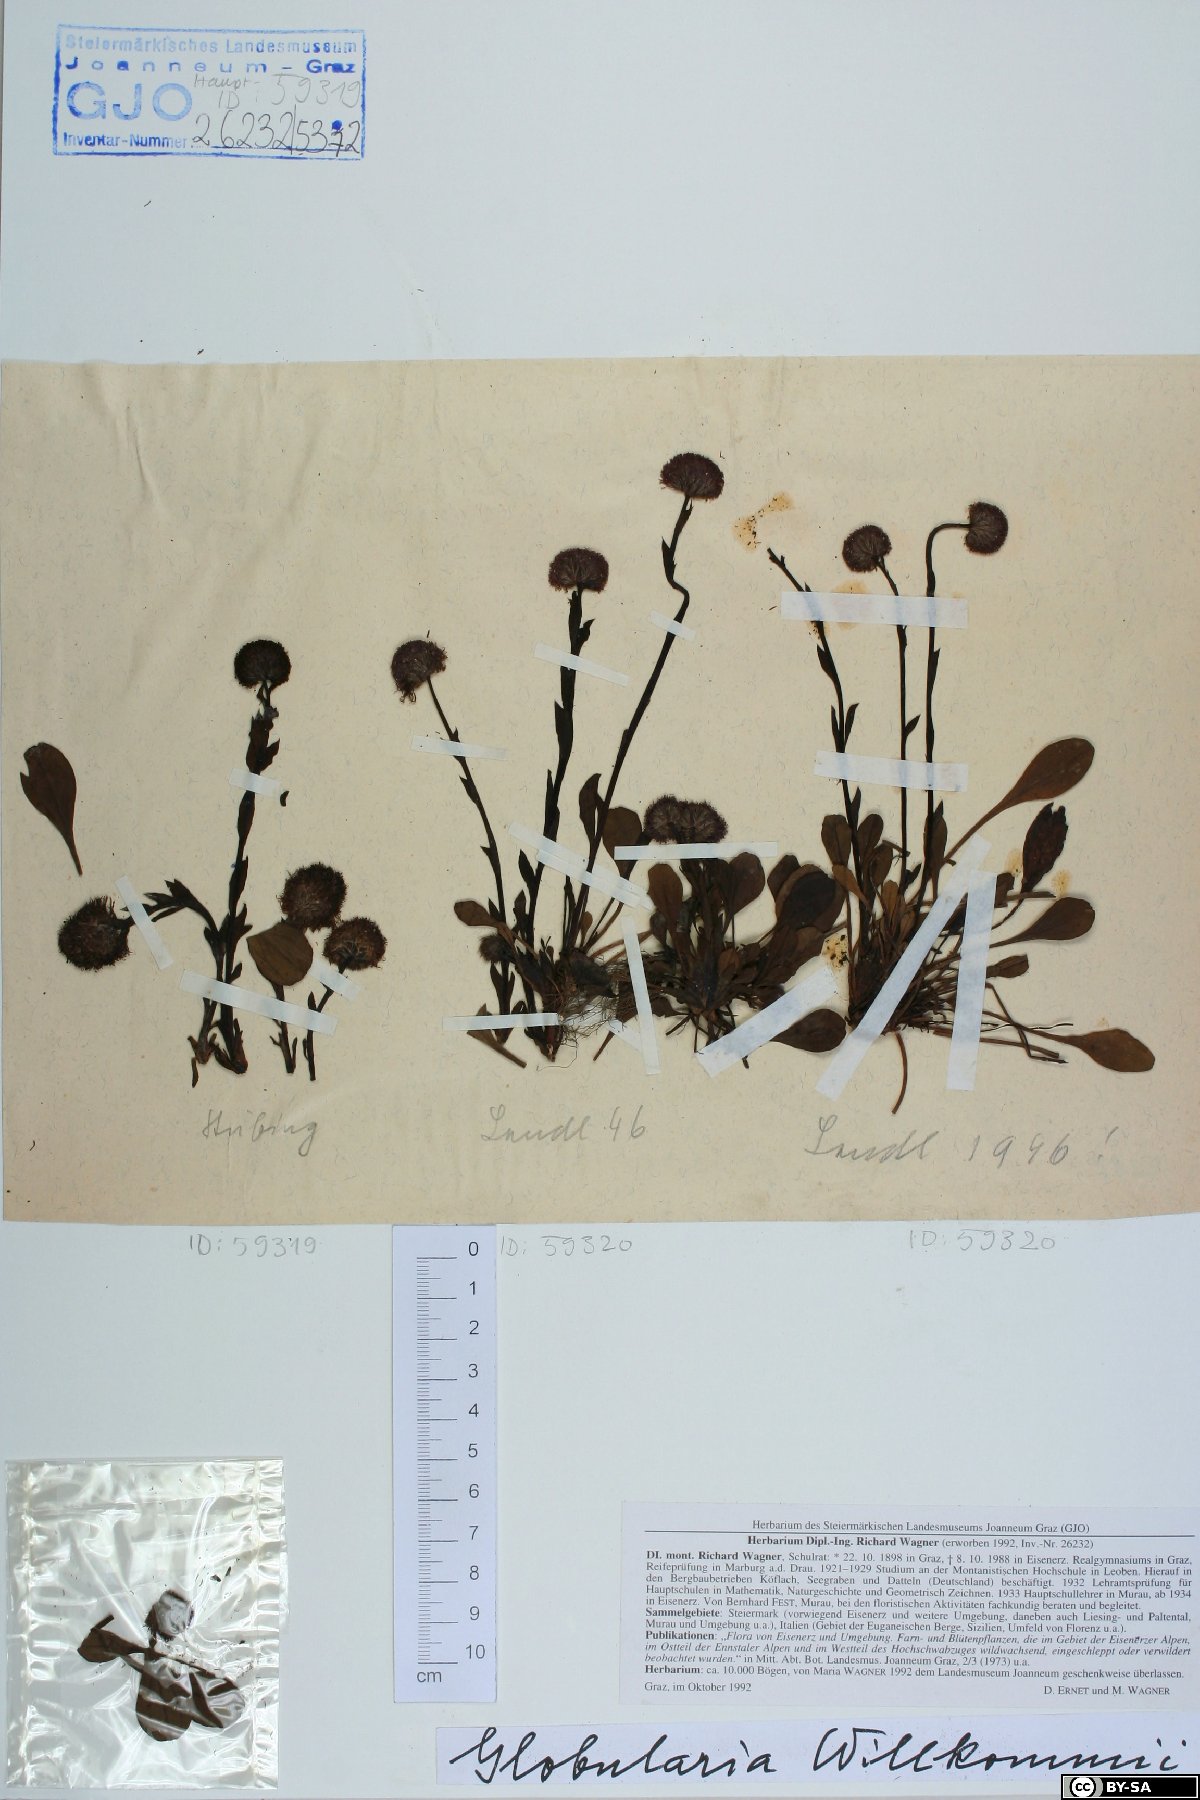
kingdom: Plantae
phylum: Tracheophyta
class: Magnoliopsida
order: Lamiales
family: Plantaginaceae
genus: Globularia
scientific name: Globularia bisnagarica
